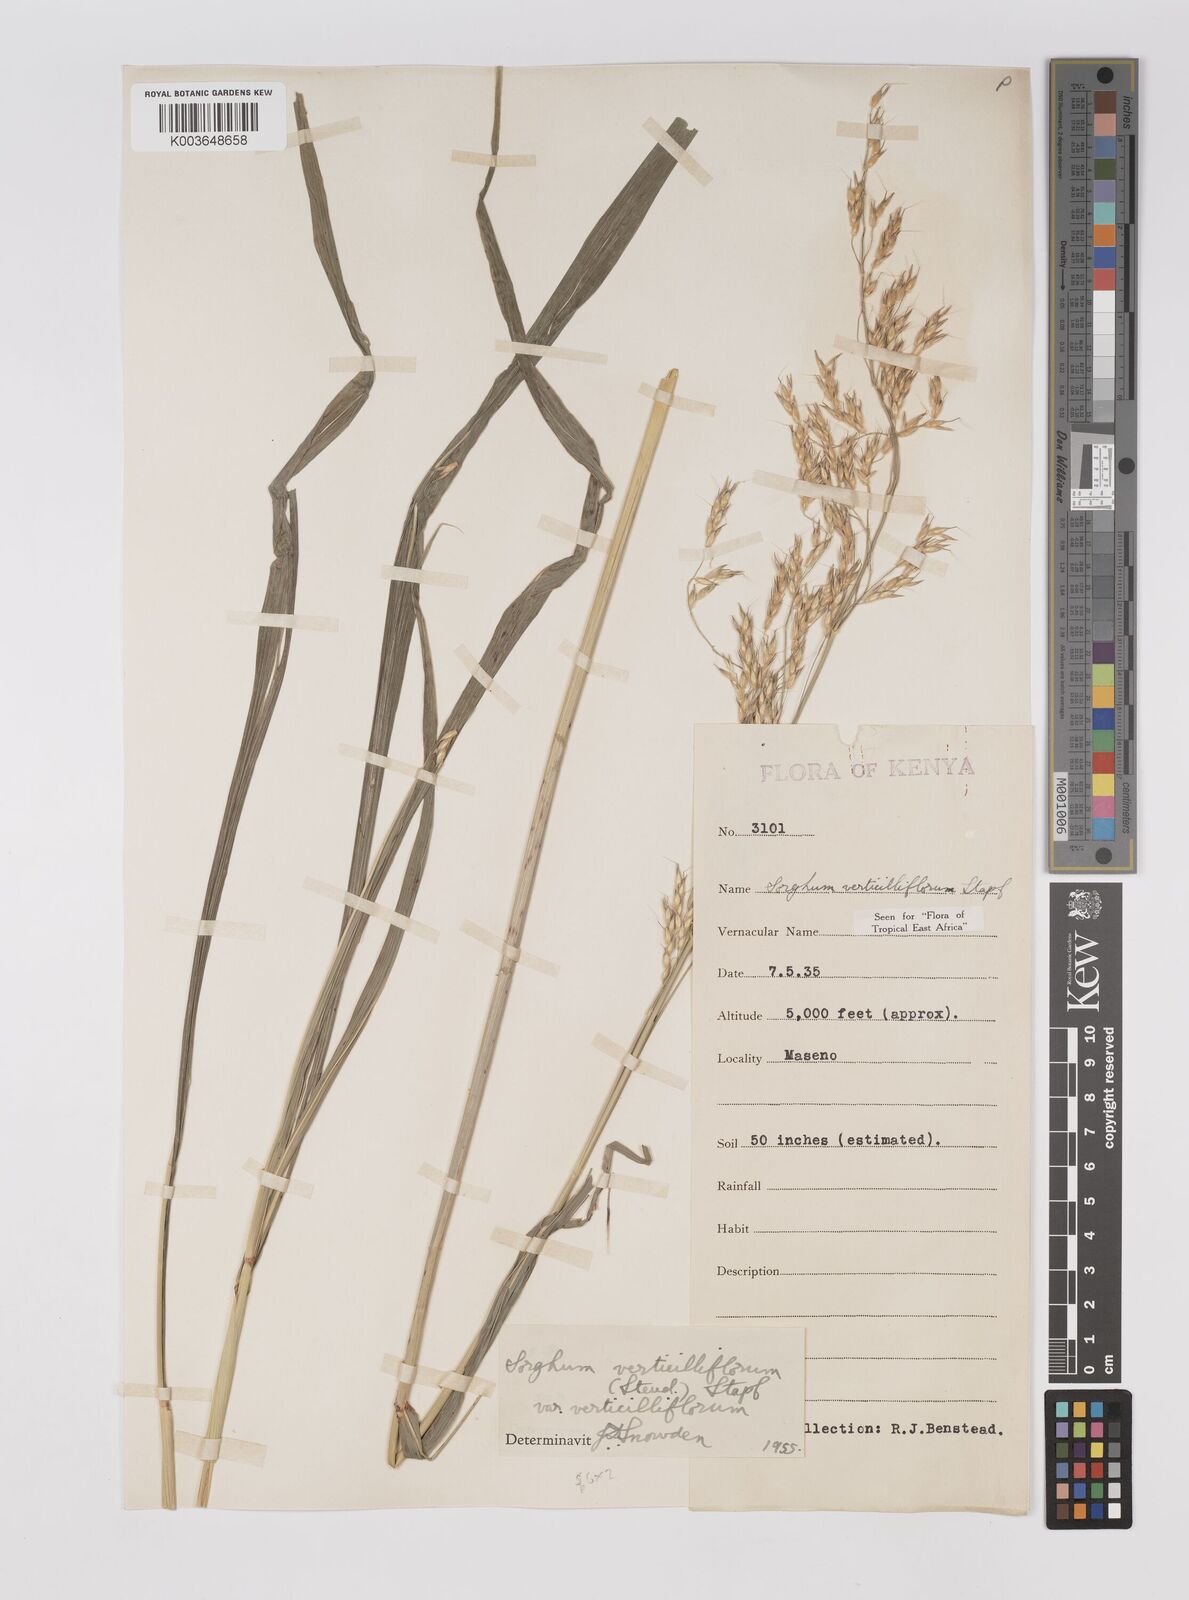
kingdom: Plantae
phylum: Tracheophyta
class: Liliopsida
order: Poales
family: Poaceae
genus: Sorghum
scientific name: Sorghum arundinaceum
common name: Sorghum
